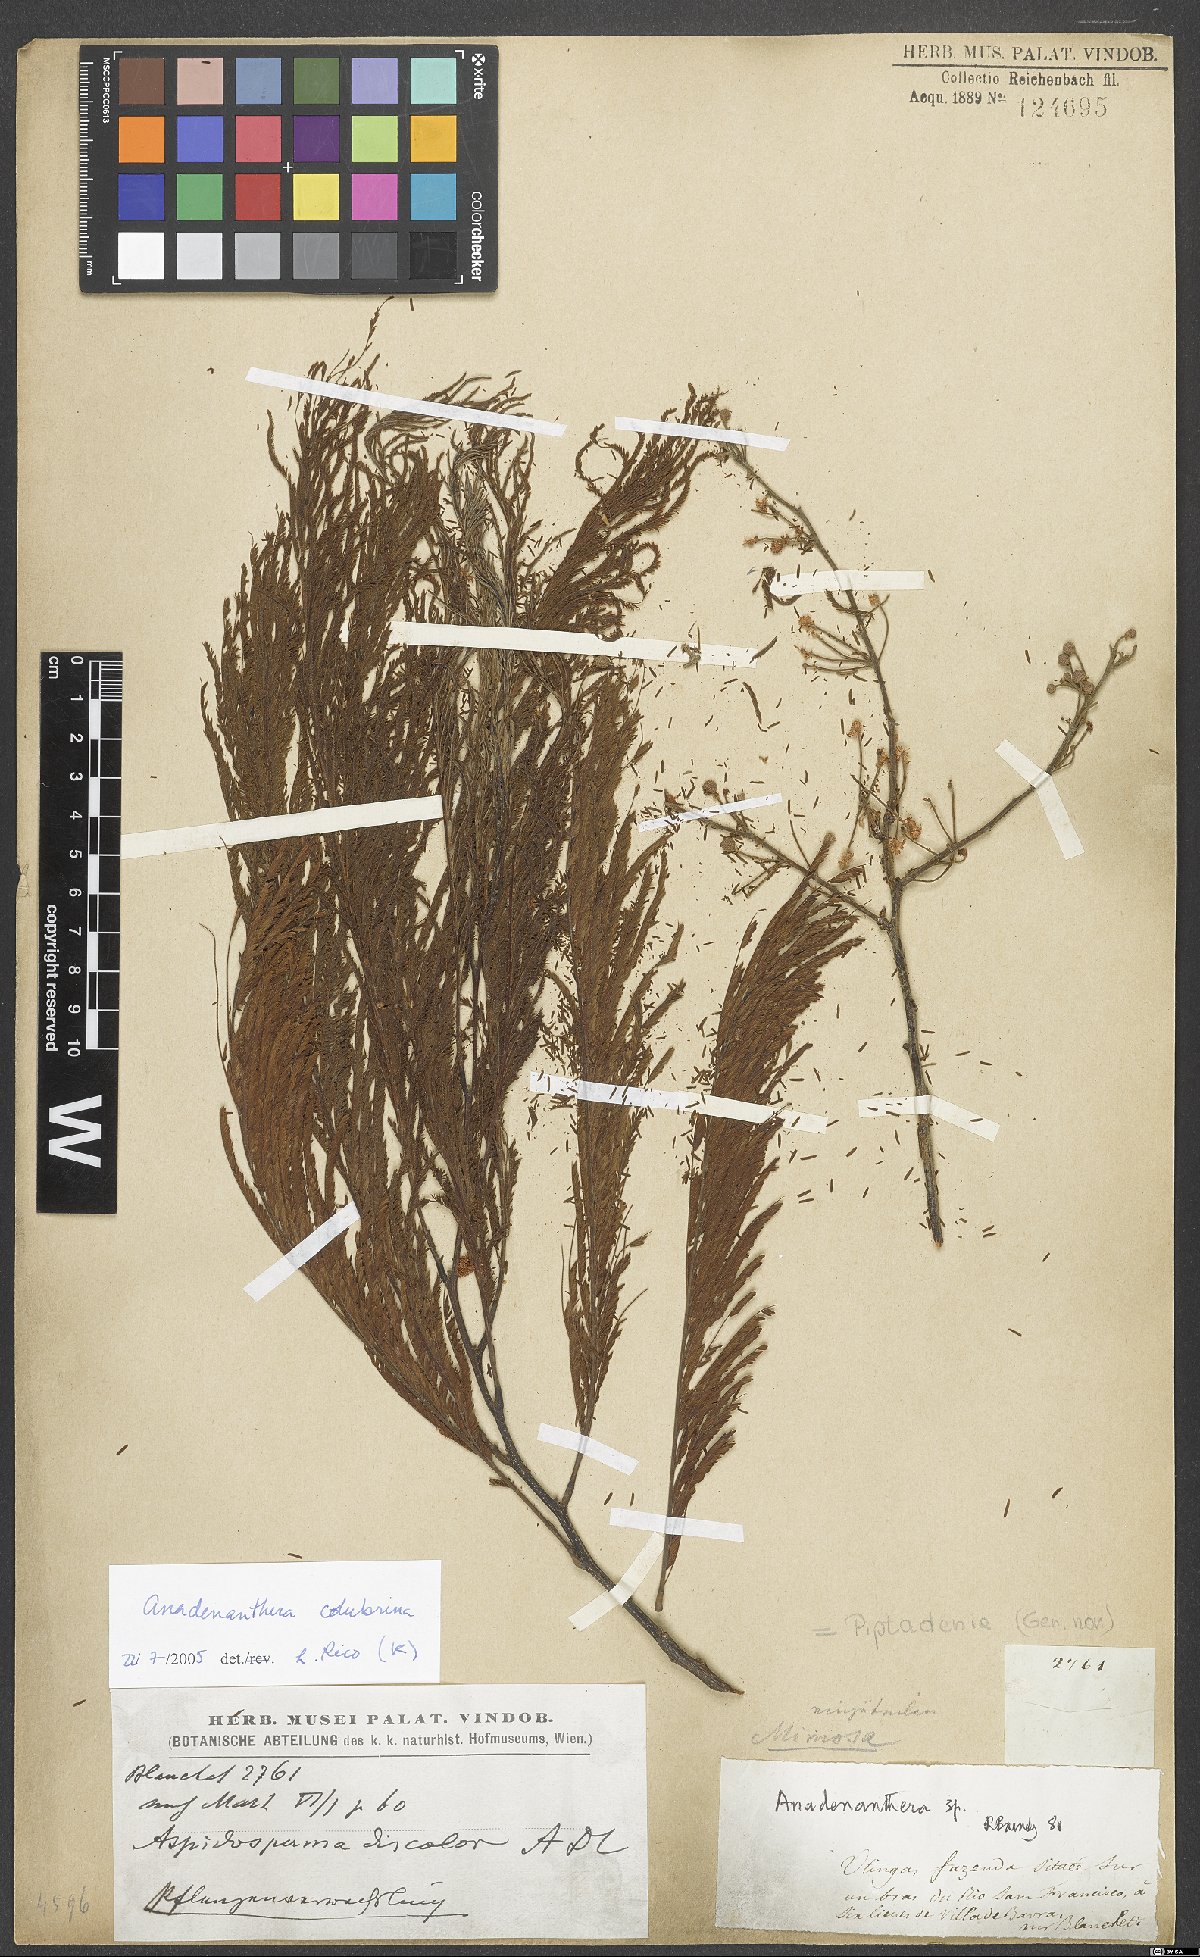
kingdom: Plantae
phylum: Tracheophyta
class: Magnoliopsida
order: Fabales
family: Fabaceae
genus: Anadenanthera
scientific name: Anadenanthera colubrina
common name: Curupay
